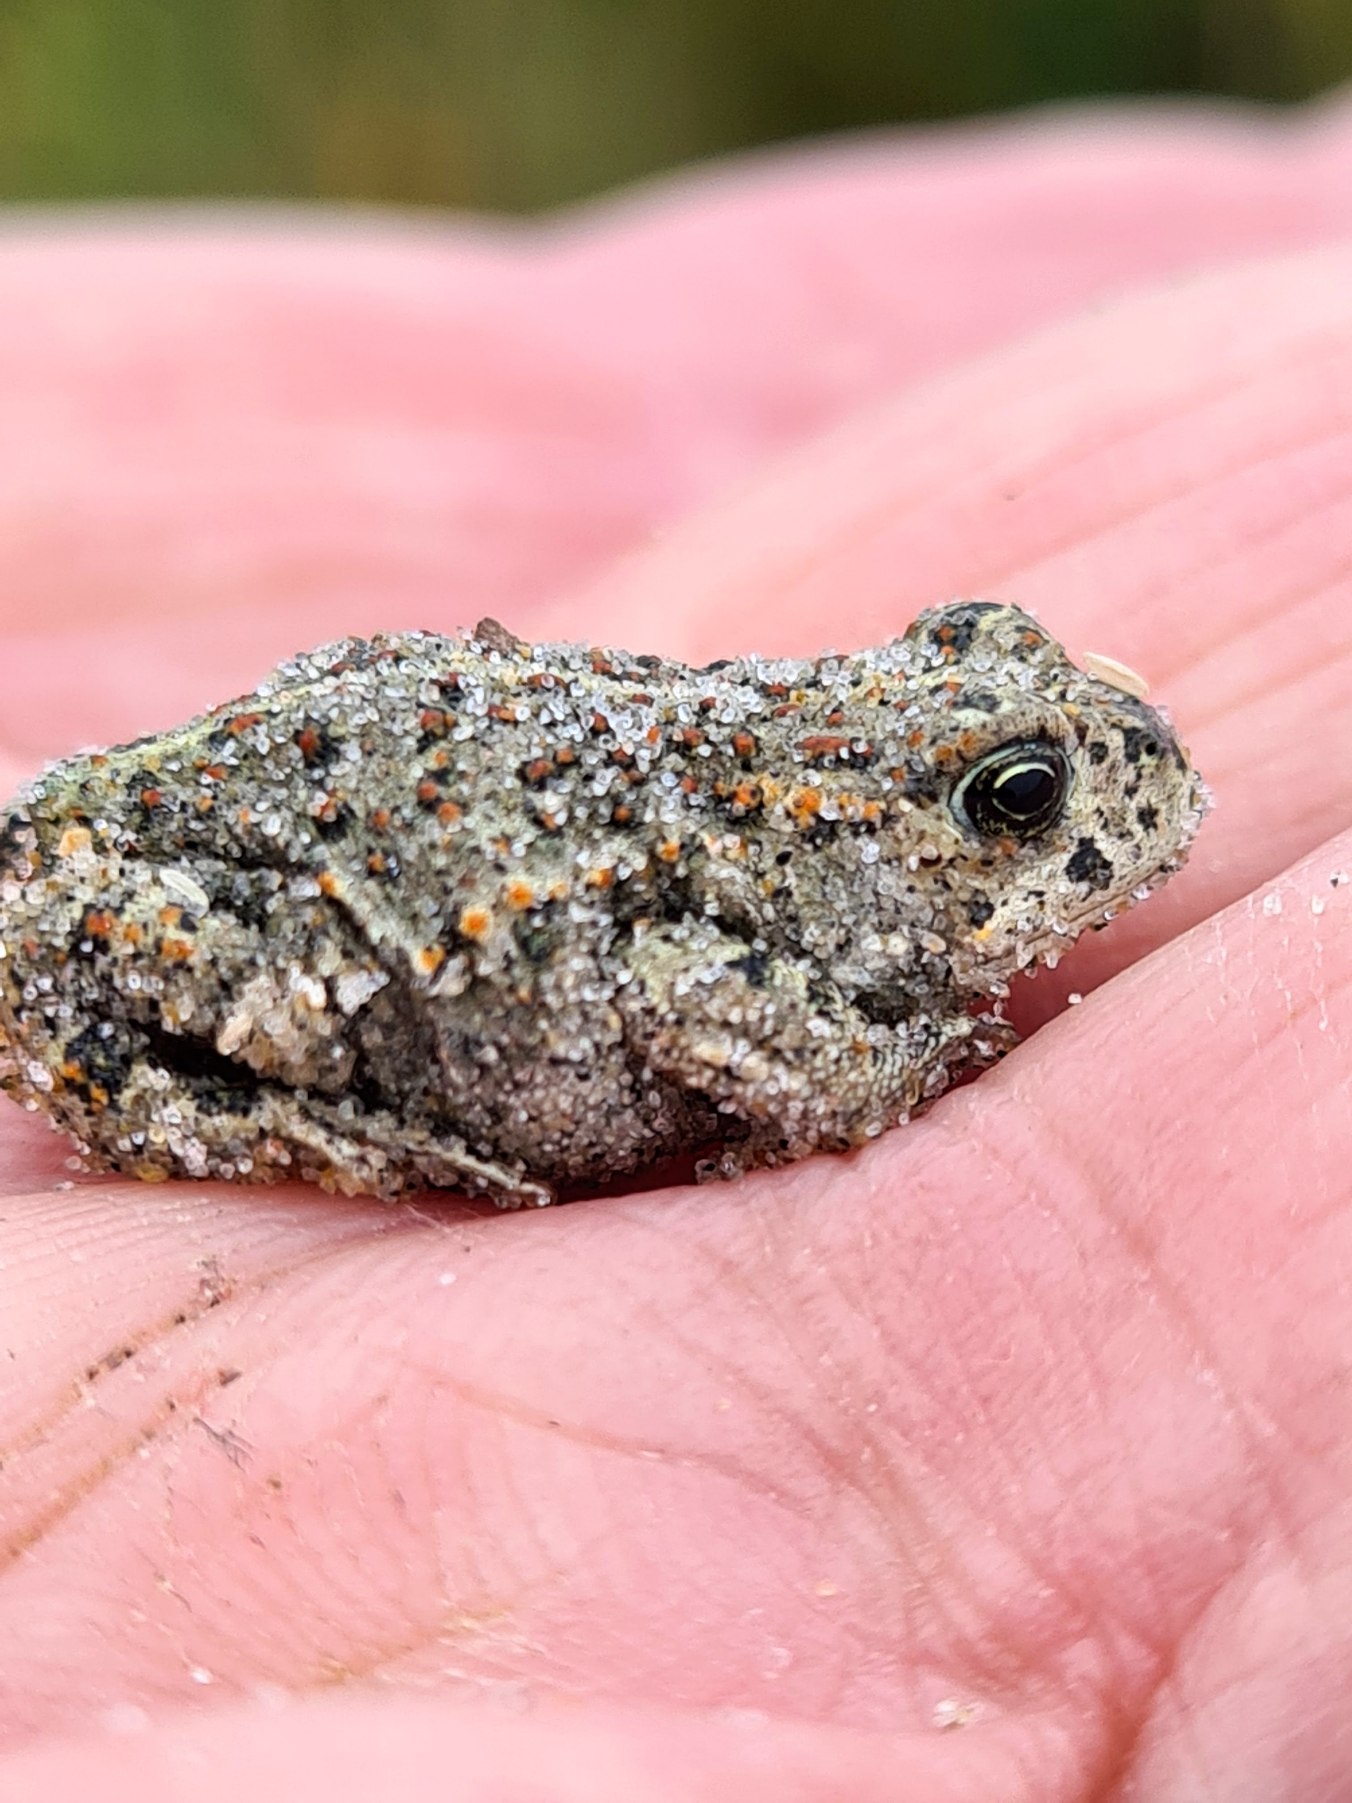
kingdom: Animalia
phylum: Chordata
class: Amphibia
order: Anura
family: Bufonidae
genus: Epidalea
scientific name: Epidalea calamita
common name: Strandtudse
